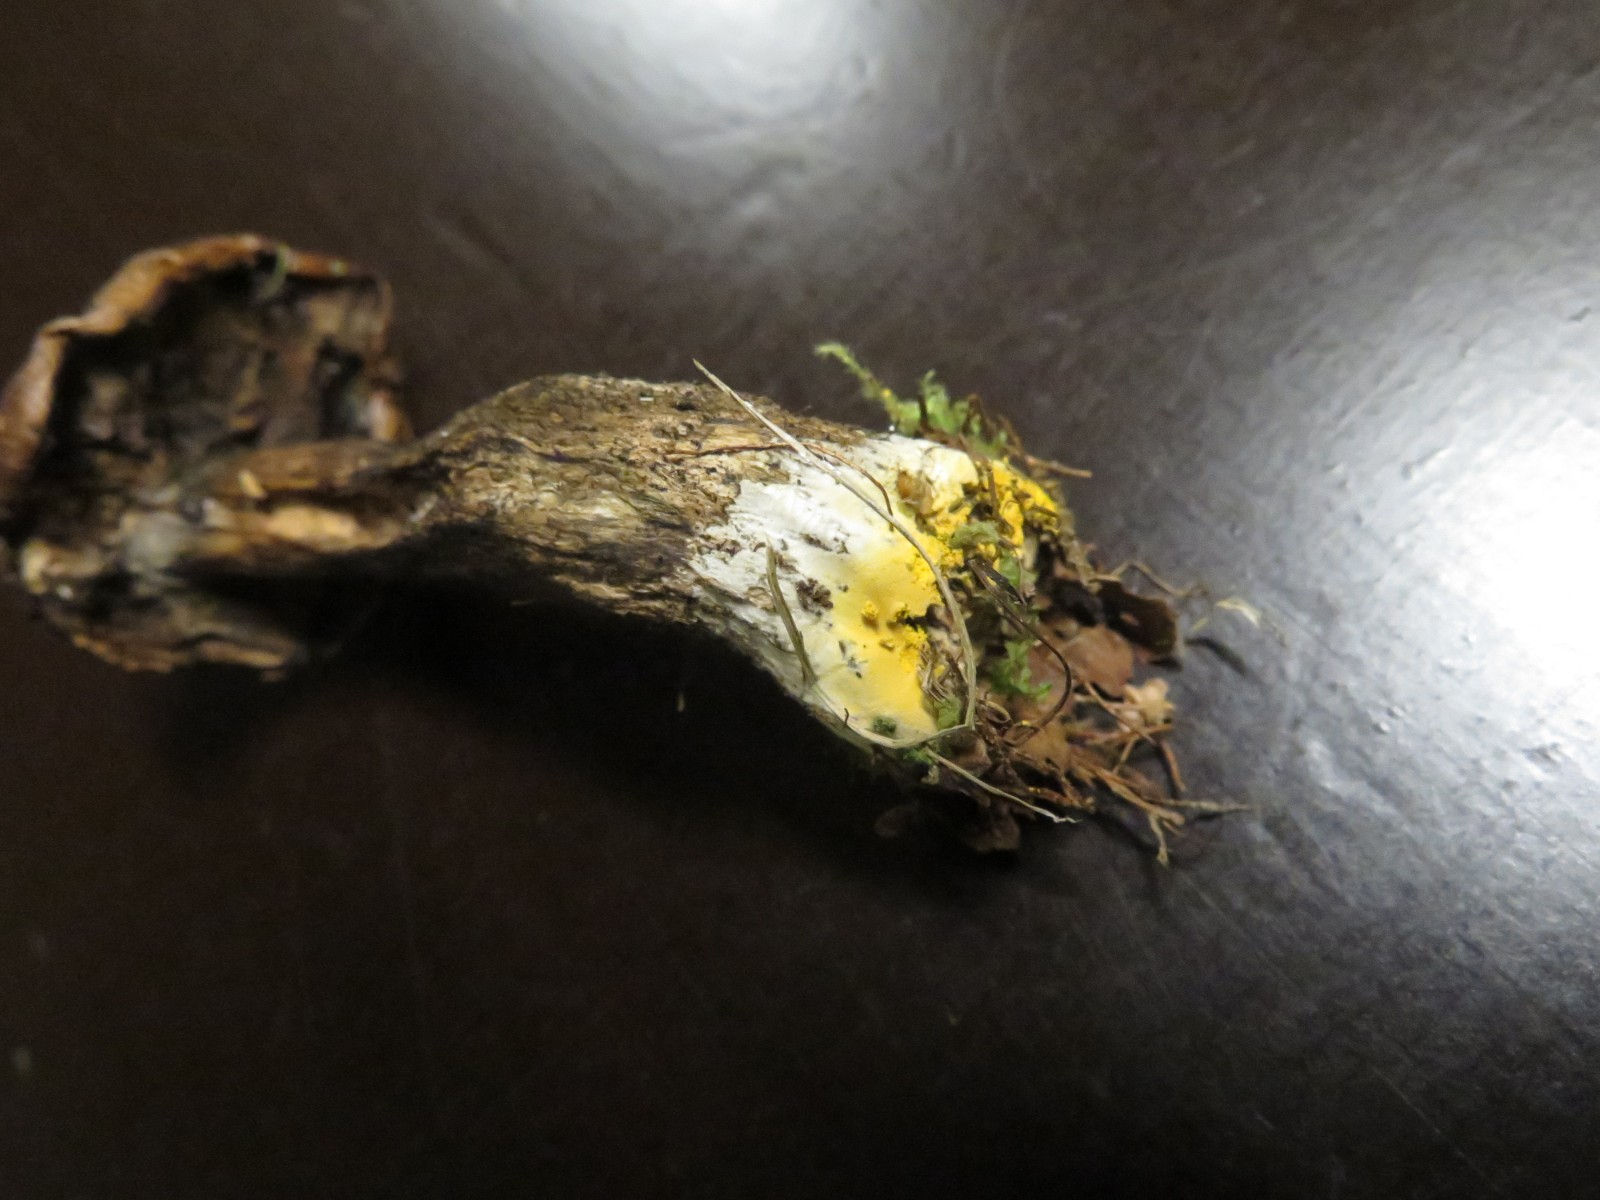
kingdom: Fungi
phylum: Ascomycota
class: Sordariomycetes
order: Hypocreales
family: Hypocreaceae
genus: Hypomyces
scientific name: Hypomyces chrysospermus
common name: gulskimmel-snylteskorpe
